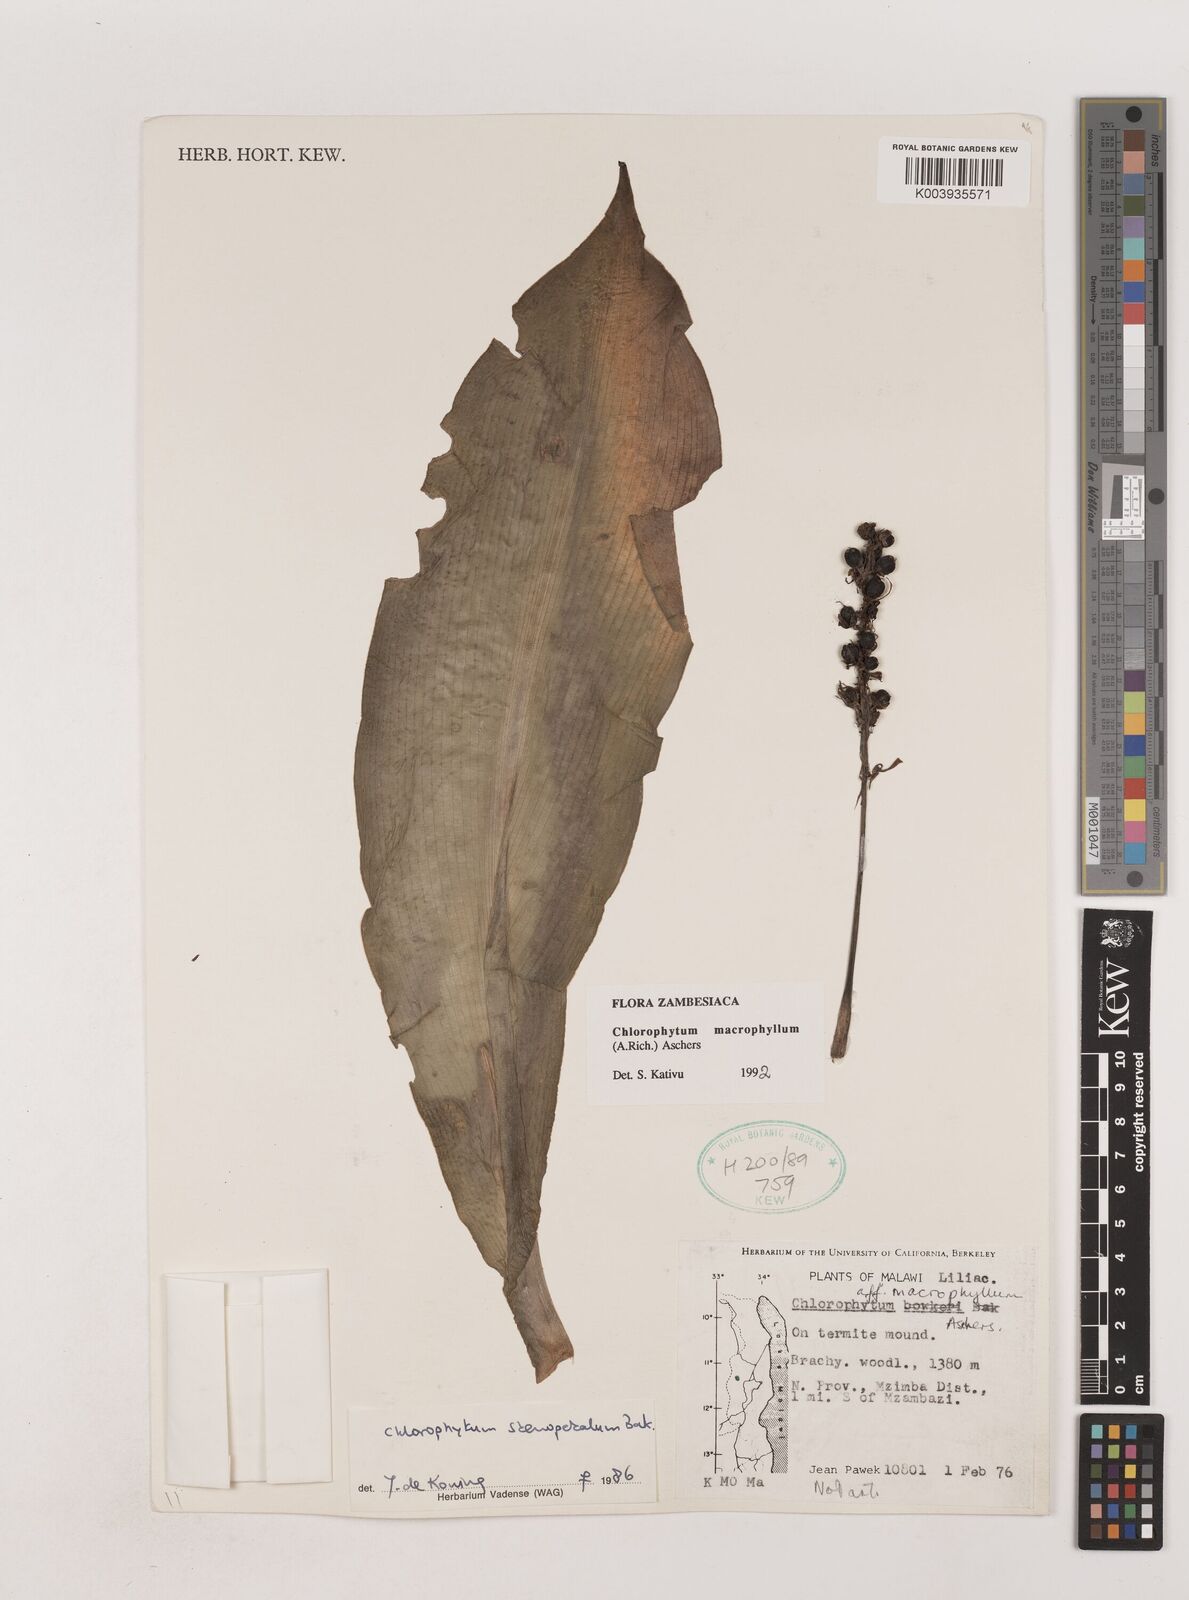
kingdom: Plantae
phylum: Tracheophyta
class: Liliopsida
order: Asparagales
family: Asparagaceae
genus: Chlorophytum
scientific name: Chlorophytum macrophyllum
